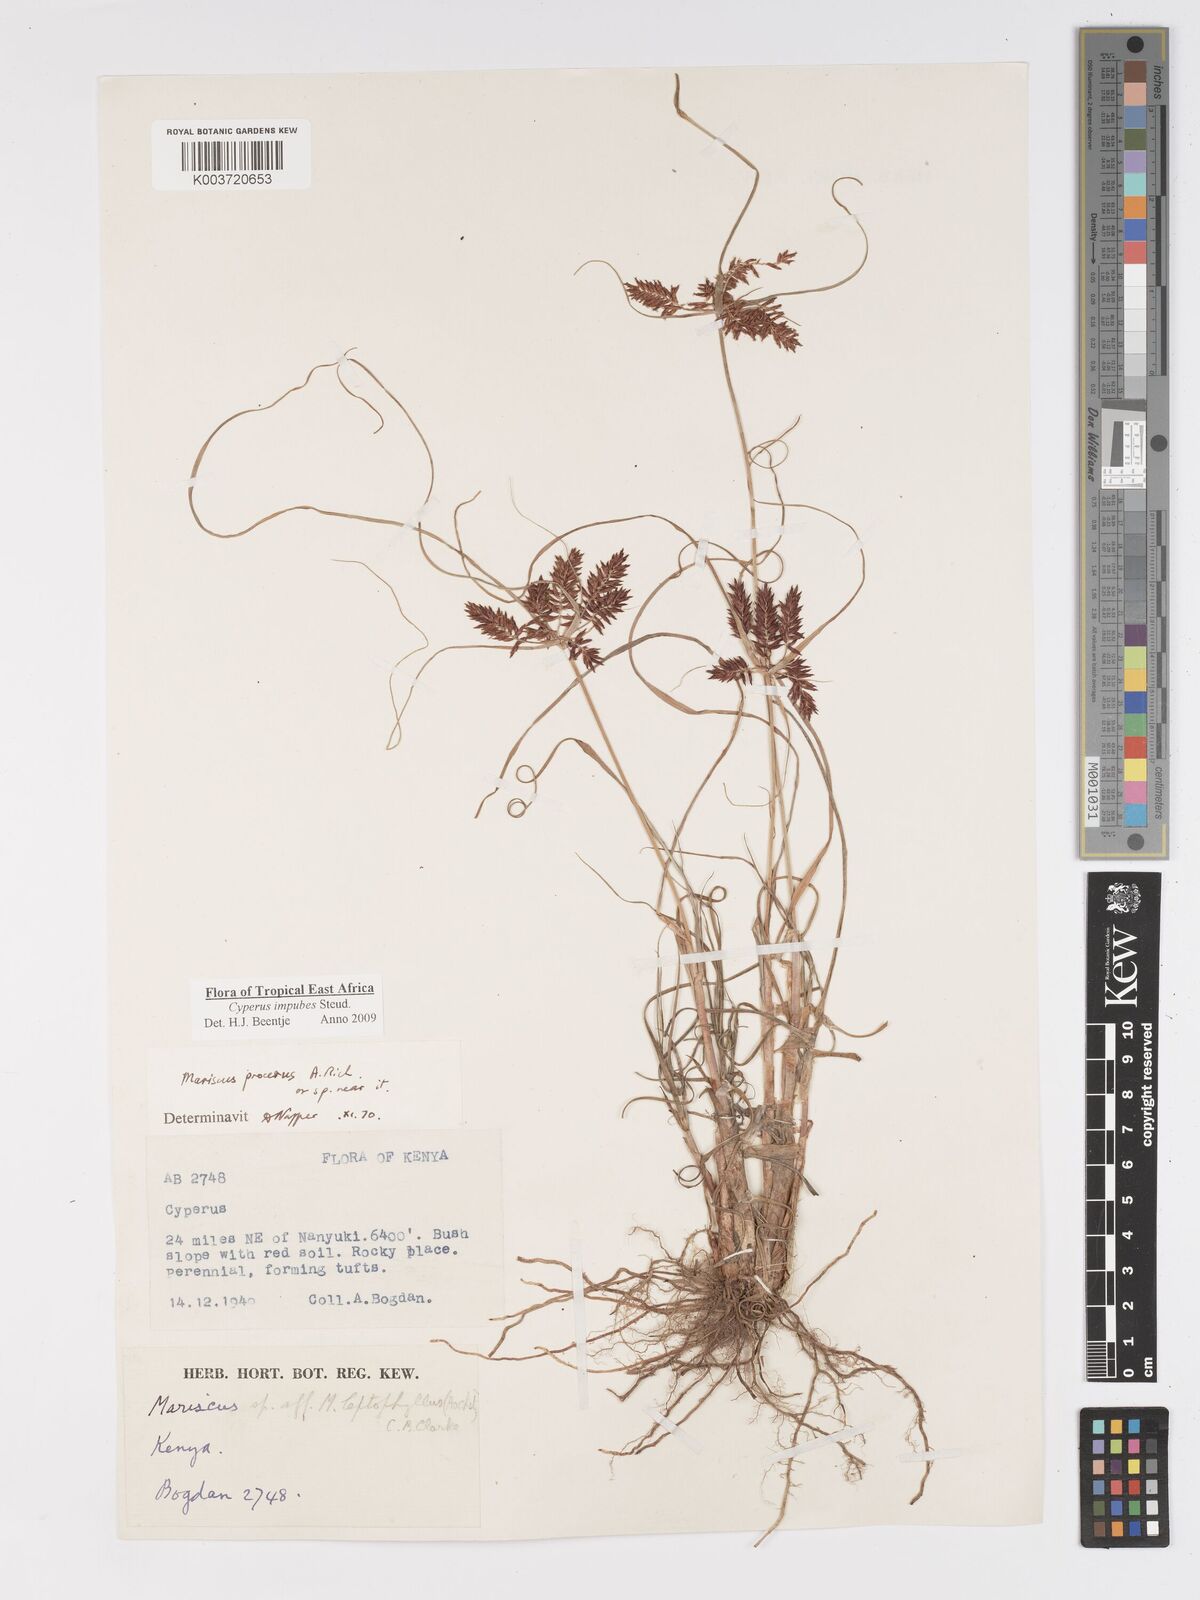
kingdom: Plantae
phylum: Tracheophyta
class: Liliopsida
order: Poales
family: Cyperaceae
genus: Cyperus
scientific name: Cyperus impubes
